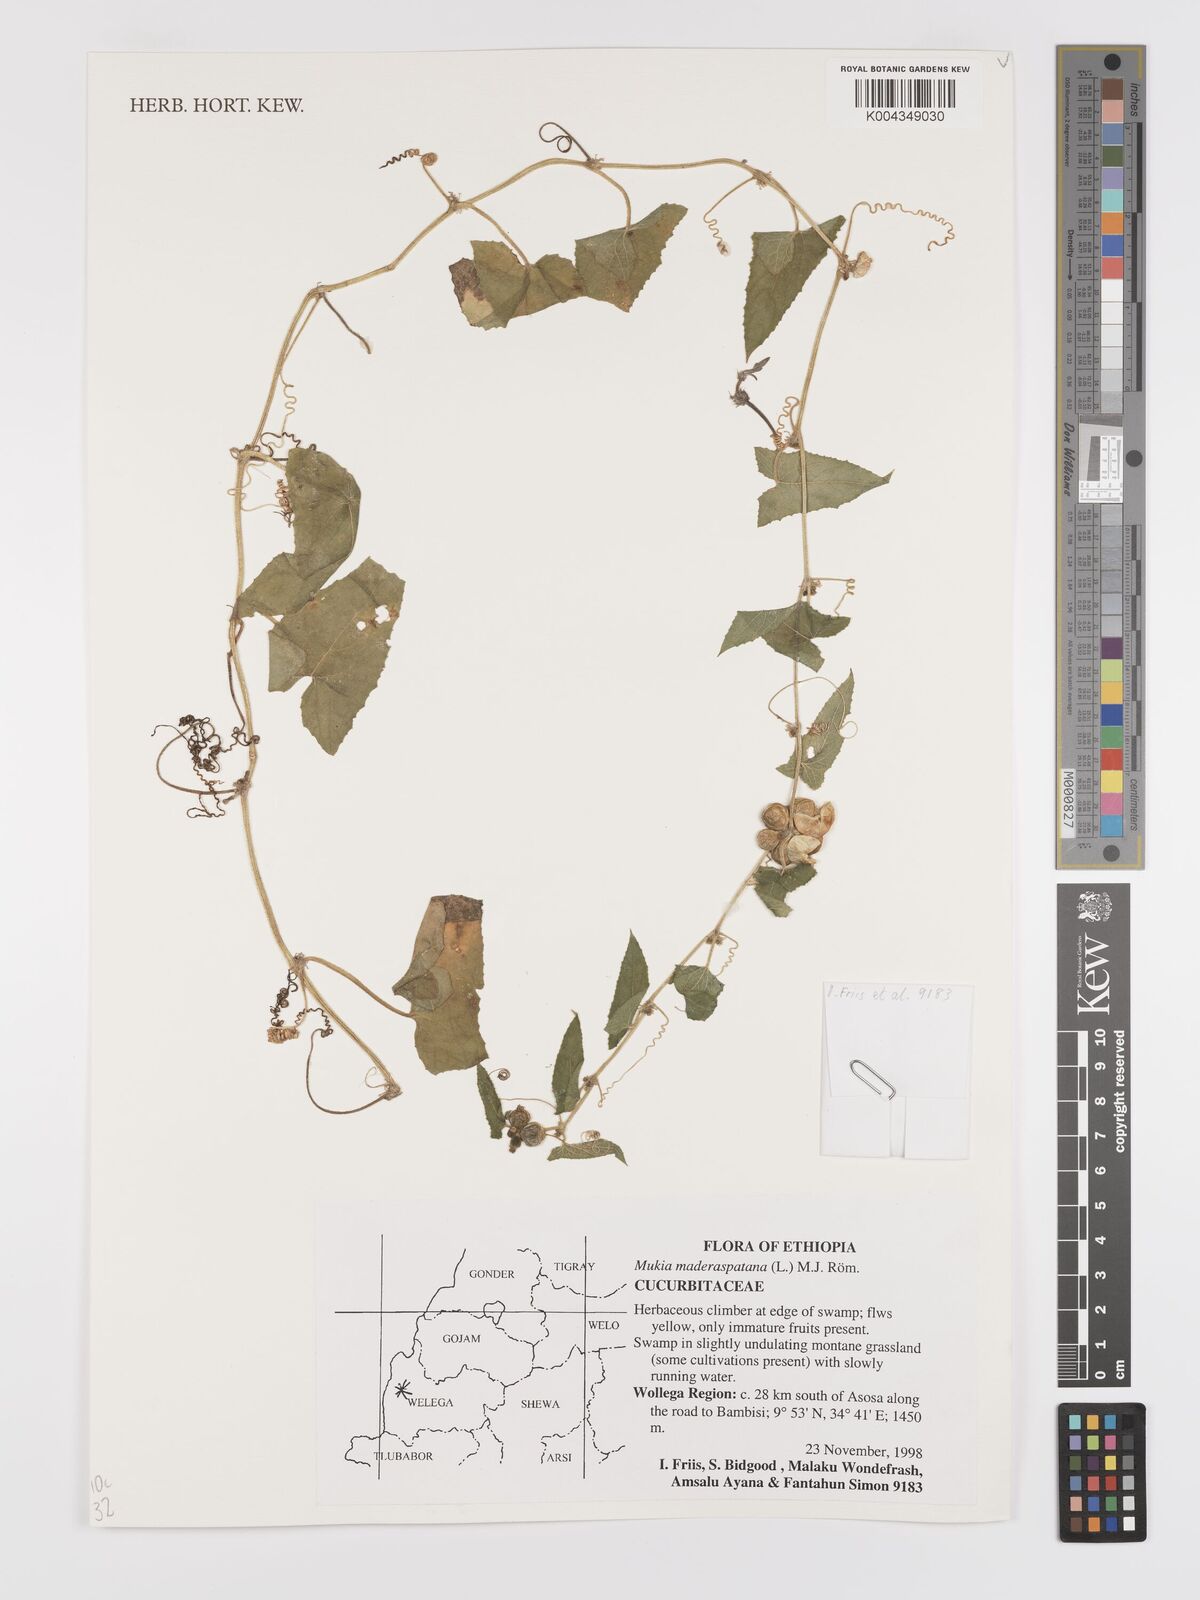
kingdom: Plantae
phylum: Tracheophyta
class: Magnoliopsida
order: Cucurbitales
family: Cucurbitaceae
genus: Cucumis
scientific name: Cucumis maderaspatanus
